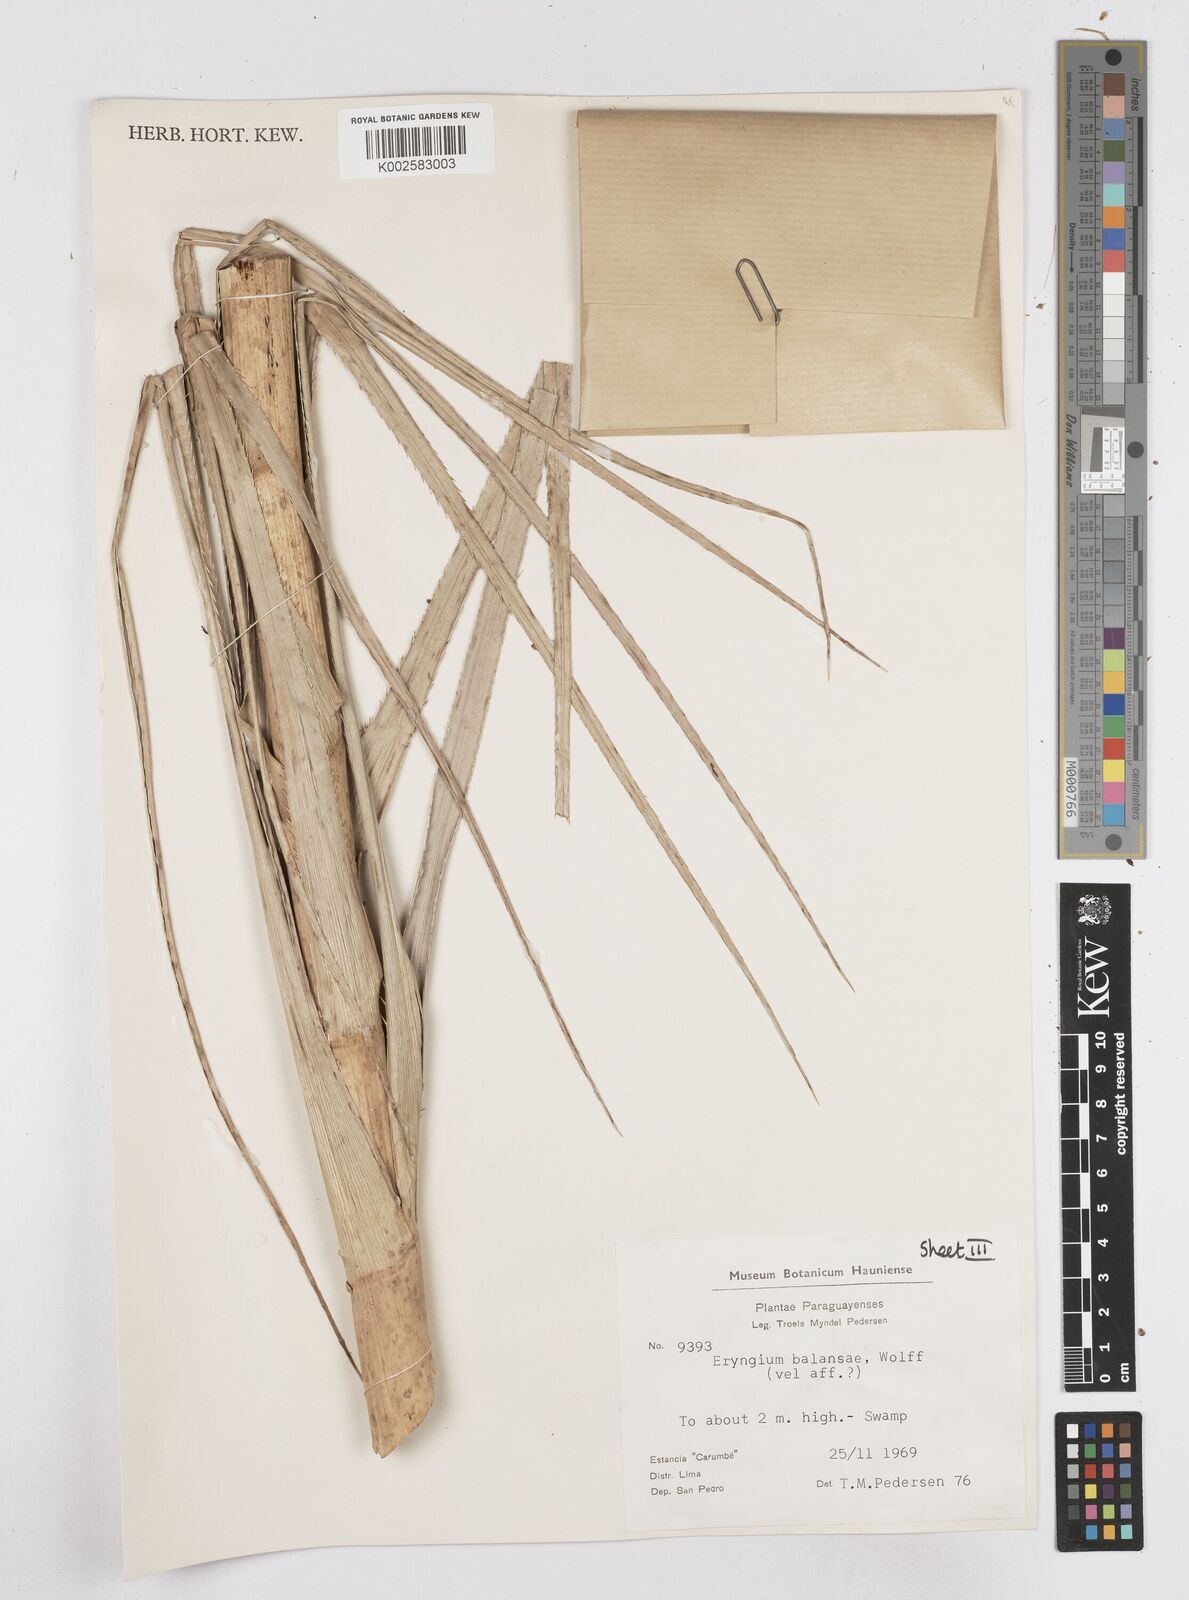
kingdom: Plantae
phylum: Tracheophyta
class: Magnoliopsida
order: Apiales
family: Apiaceae
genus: Eryngium
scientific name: Eryngium balansae
